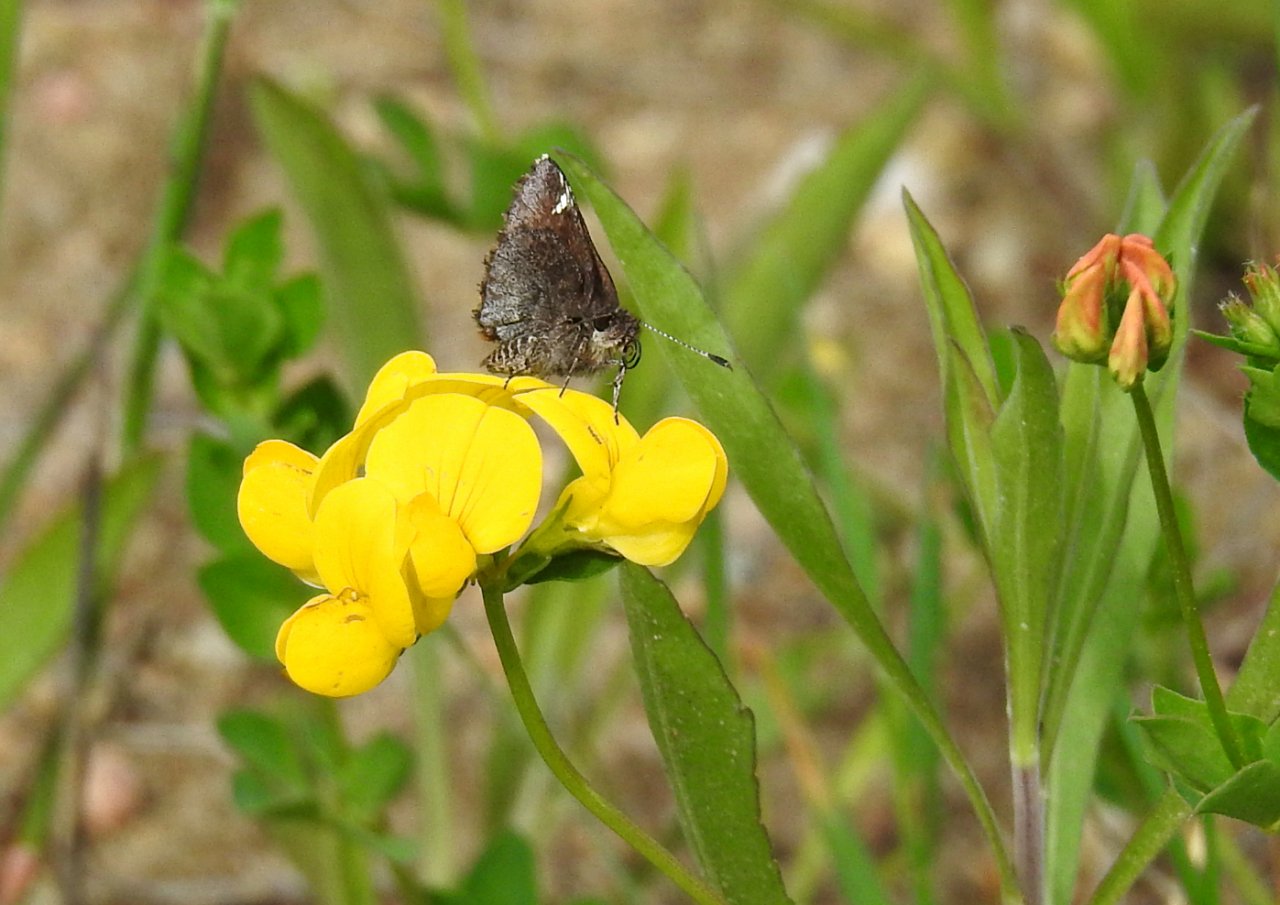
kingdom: Animalia
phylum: Arthropoda
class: Insecta
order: Lepidoptera
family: Hesperiidae
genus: Mastor
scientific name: Mastor vialis
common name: Common Roadside-Skipper
